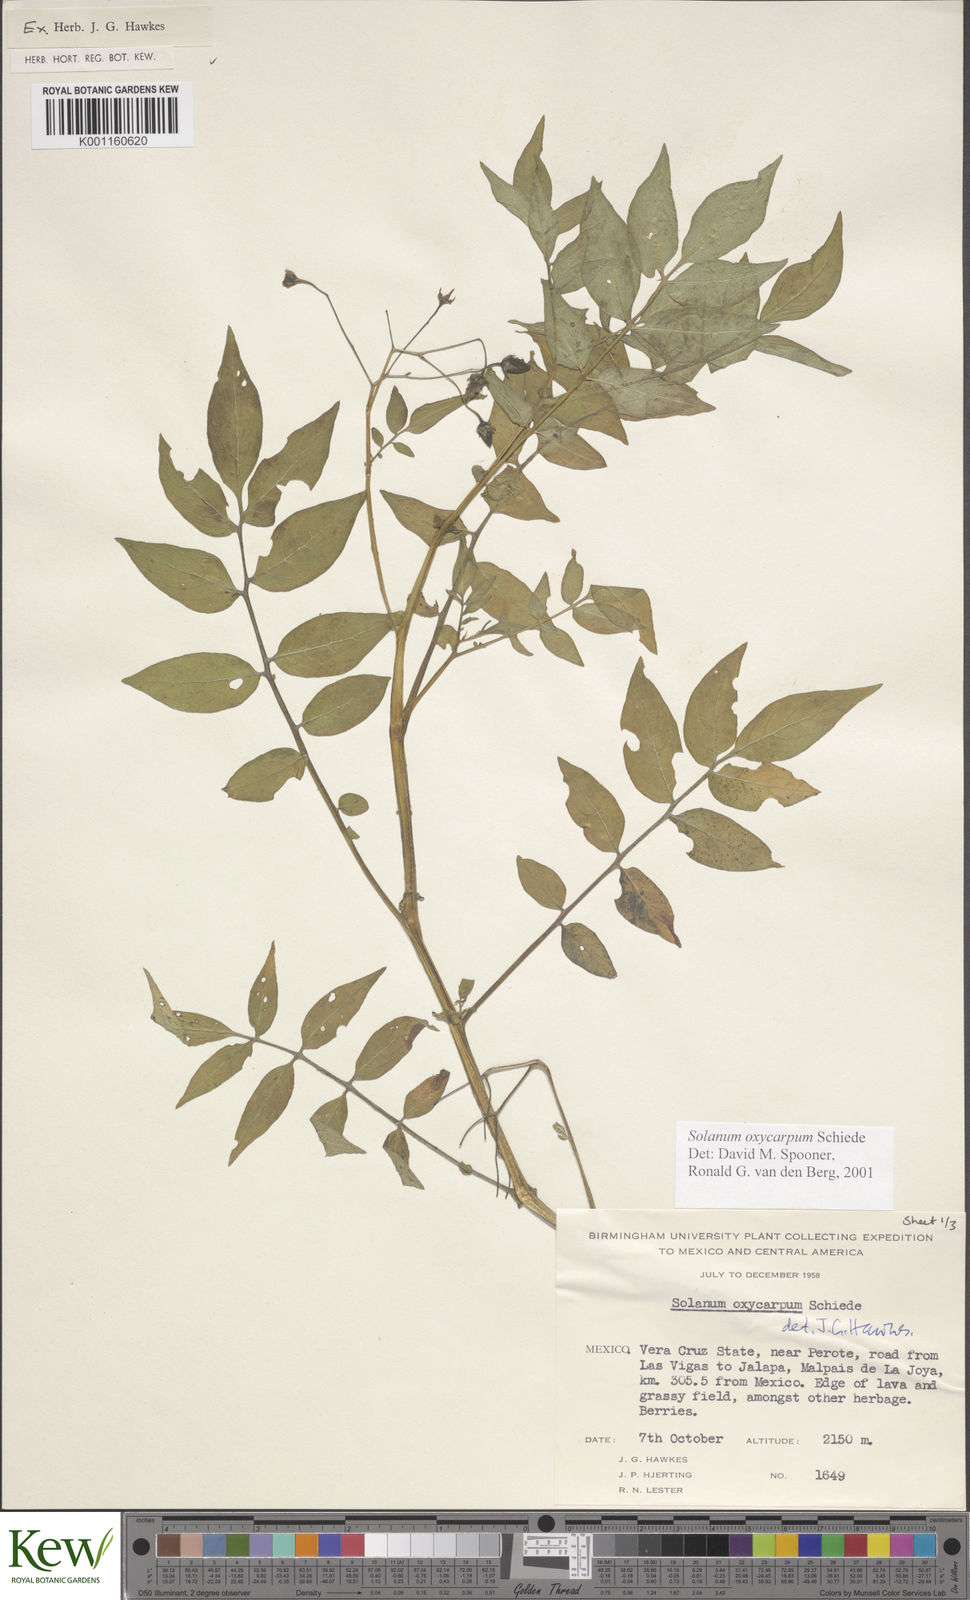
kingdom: Plantae
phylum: Tracheophyta
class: Magnoliopsida
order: Solanales
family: Solanaceae
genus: Solanum
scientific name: Solanum oxycarpum
